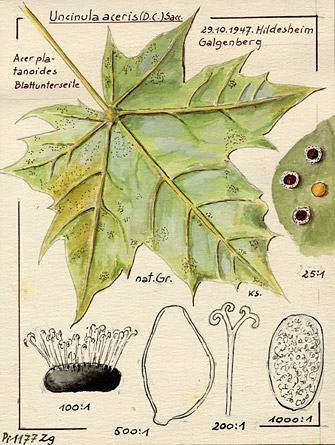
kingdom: Plantae
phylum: Tracheophyta
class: Magnoliopsida
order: Sapindales
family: Sapindaceae
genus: Acer
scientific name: Acer platanoides
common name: Norway maple
